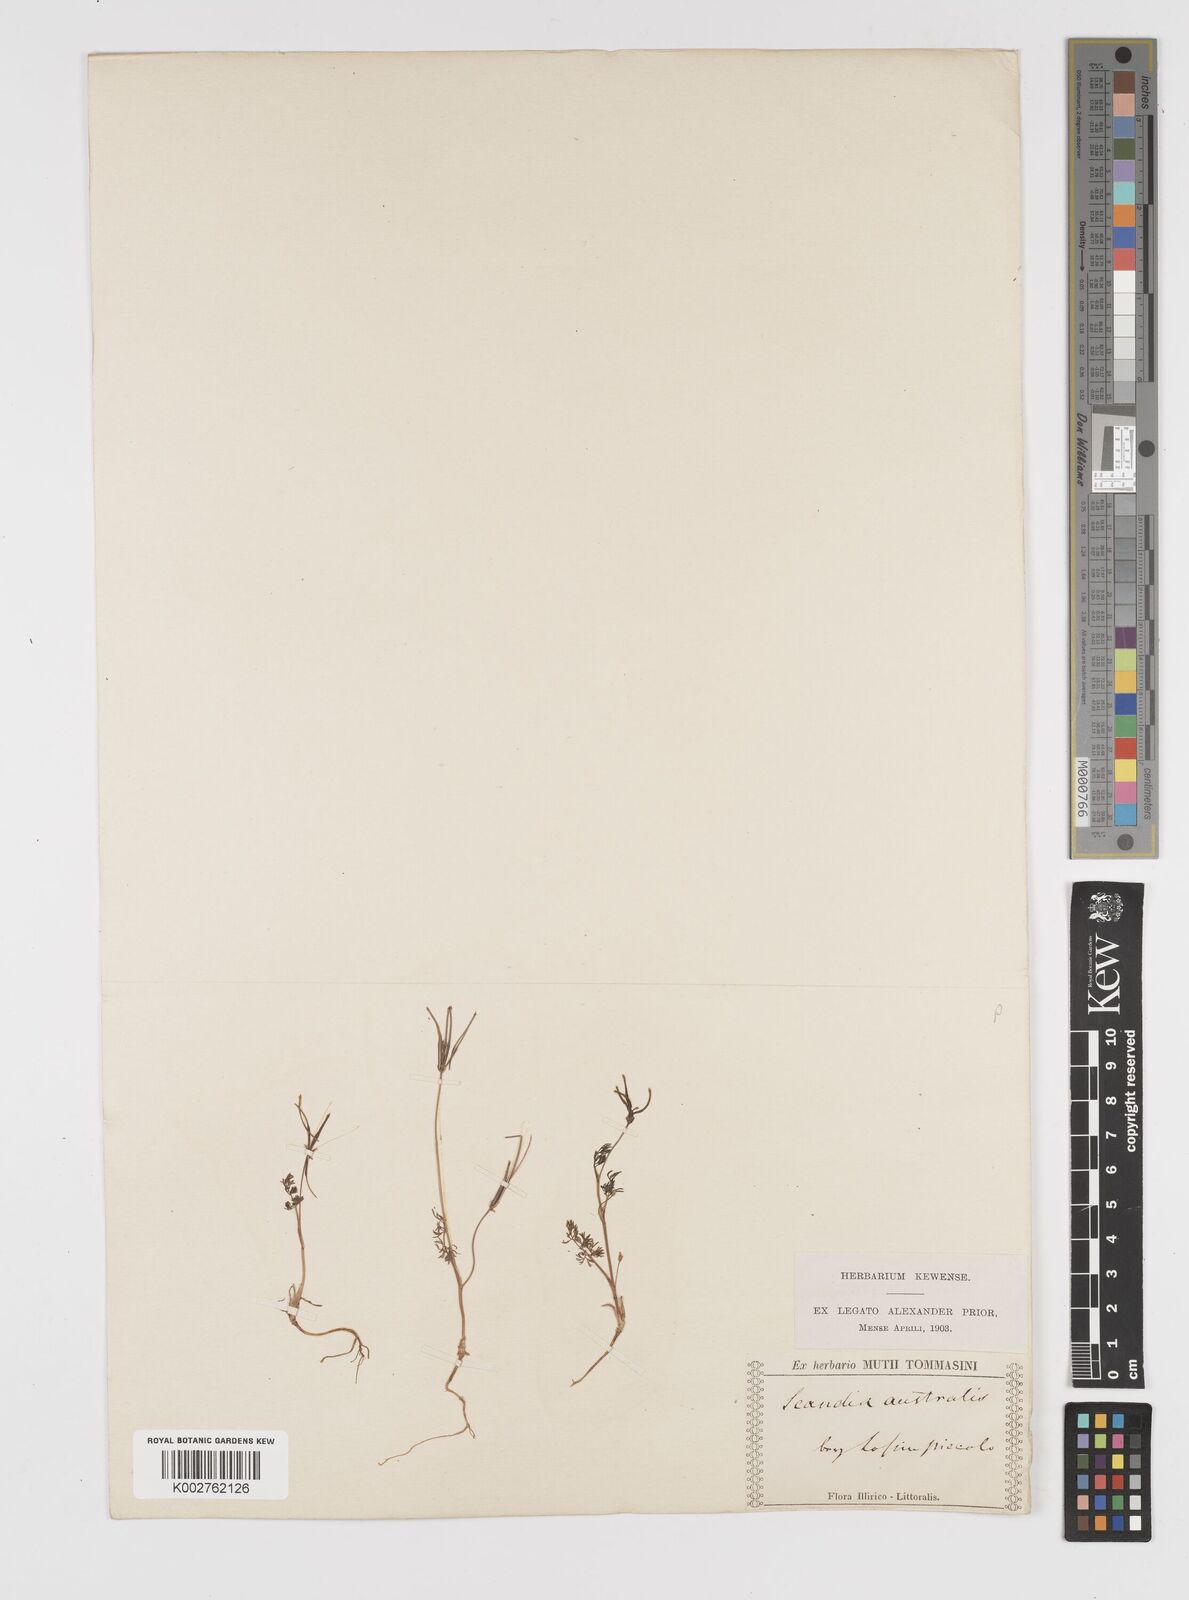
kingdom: Plantae
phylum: Tracheophyta
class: Magnoliopsida
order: Apiales
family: Apiaceae
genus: Scandix
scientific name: Scandix australis
